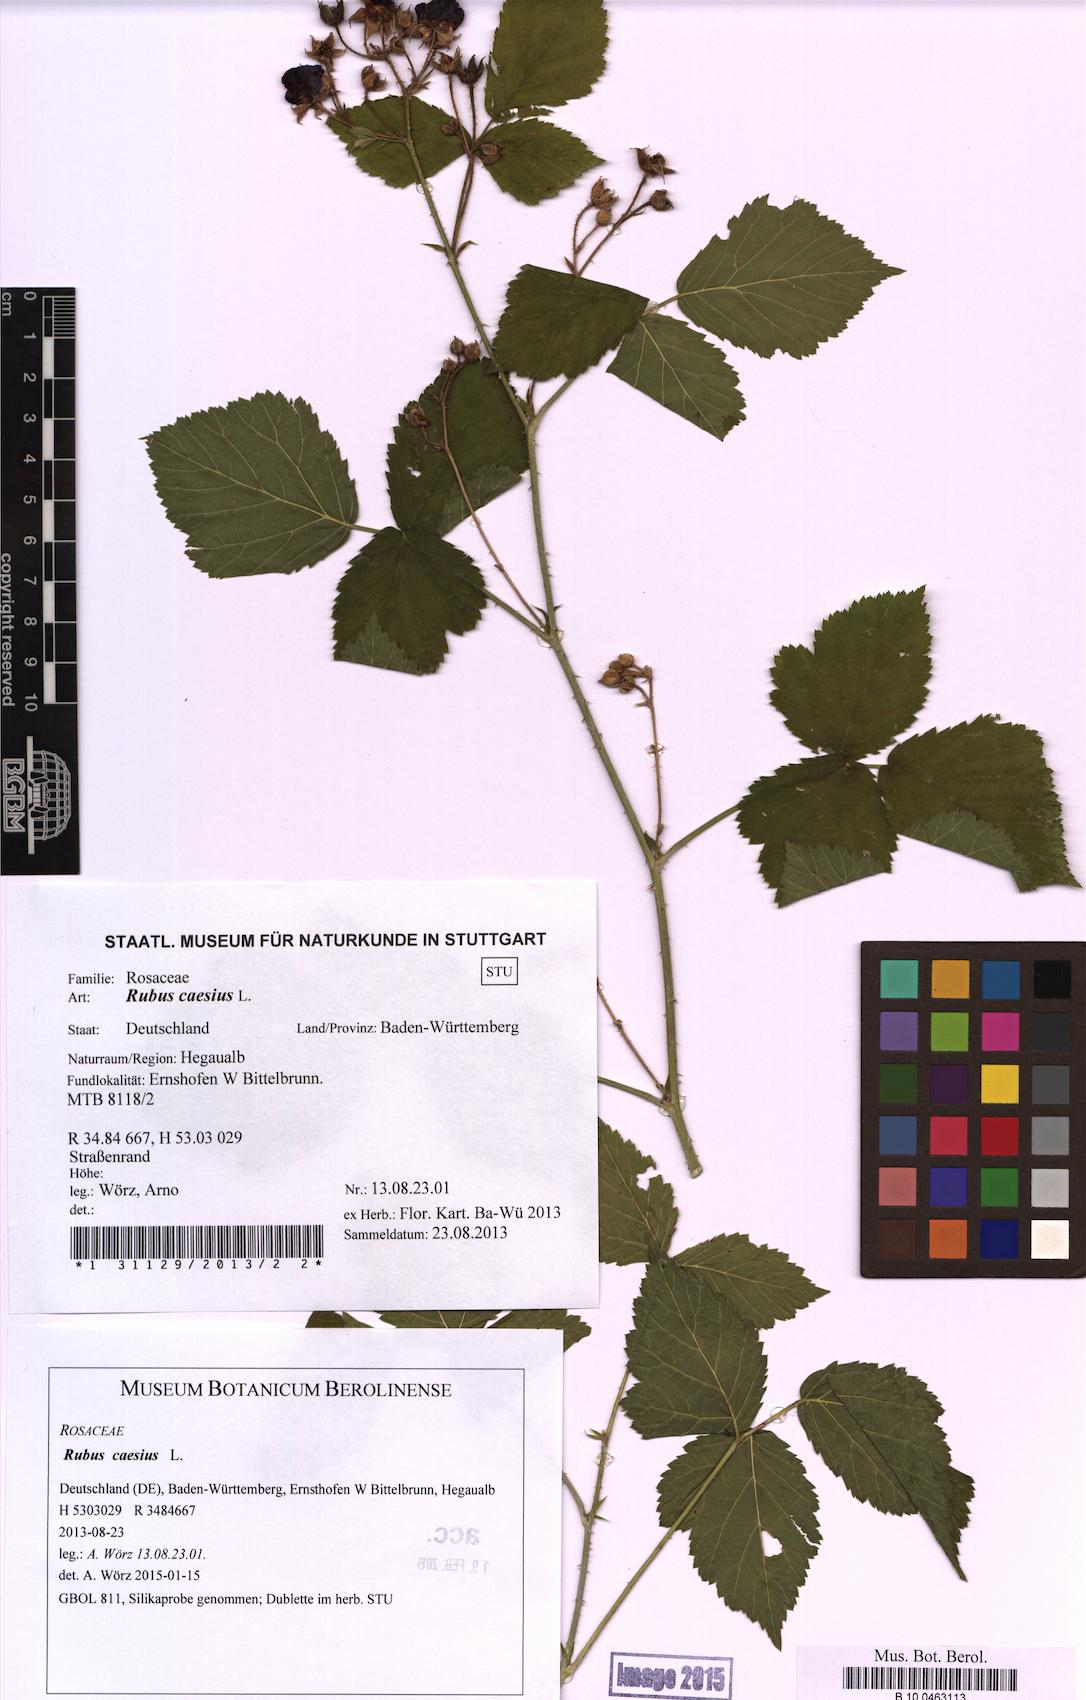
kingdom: Plantae
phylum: Tracheophyta
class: Magnoliopsida
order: Rosales
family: Rosaceae
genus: Rubus
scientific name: Rubus caesius
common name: Dewberry
